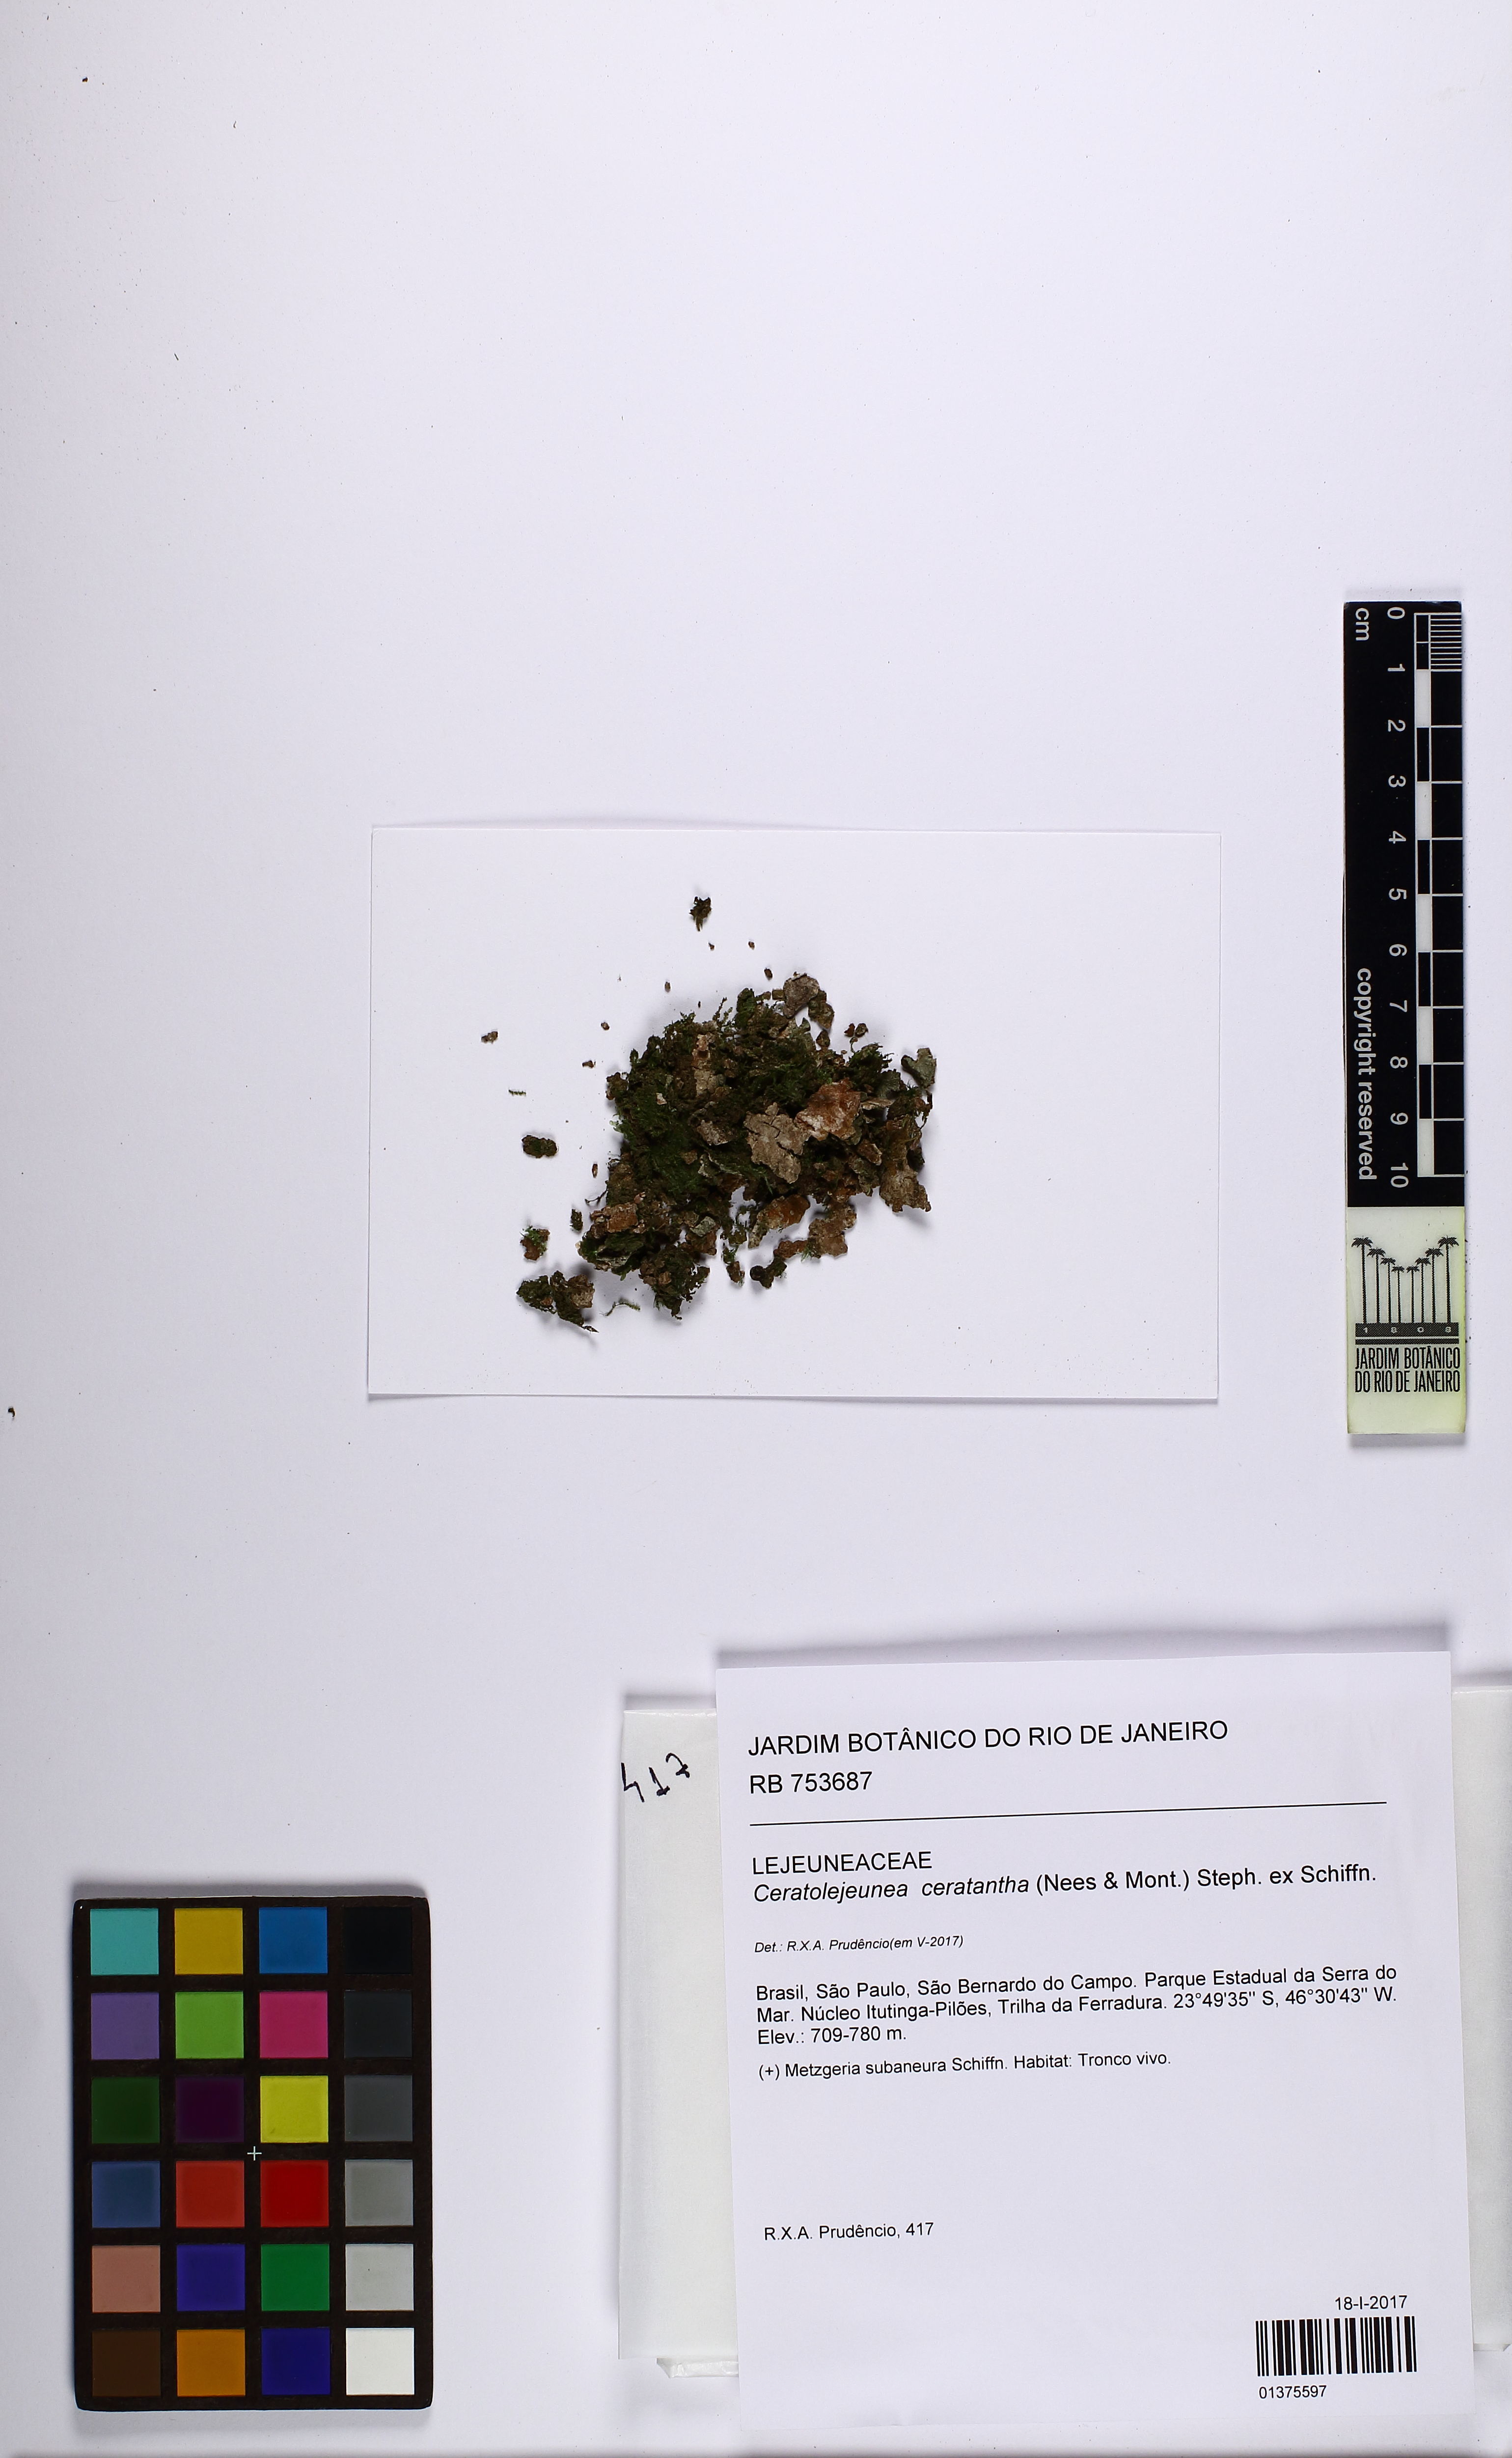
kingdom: Plantae
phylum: Marchantiophyta
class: Jungermanniopsida
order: Porellales
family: Lejeuneaceae
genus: Ceratolejeunea
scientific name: Ceratolejeunea ceratantha
